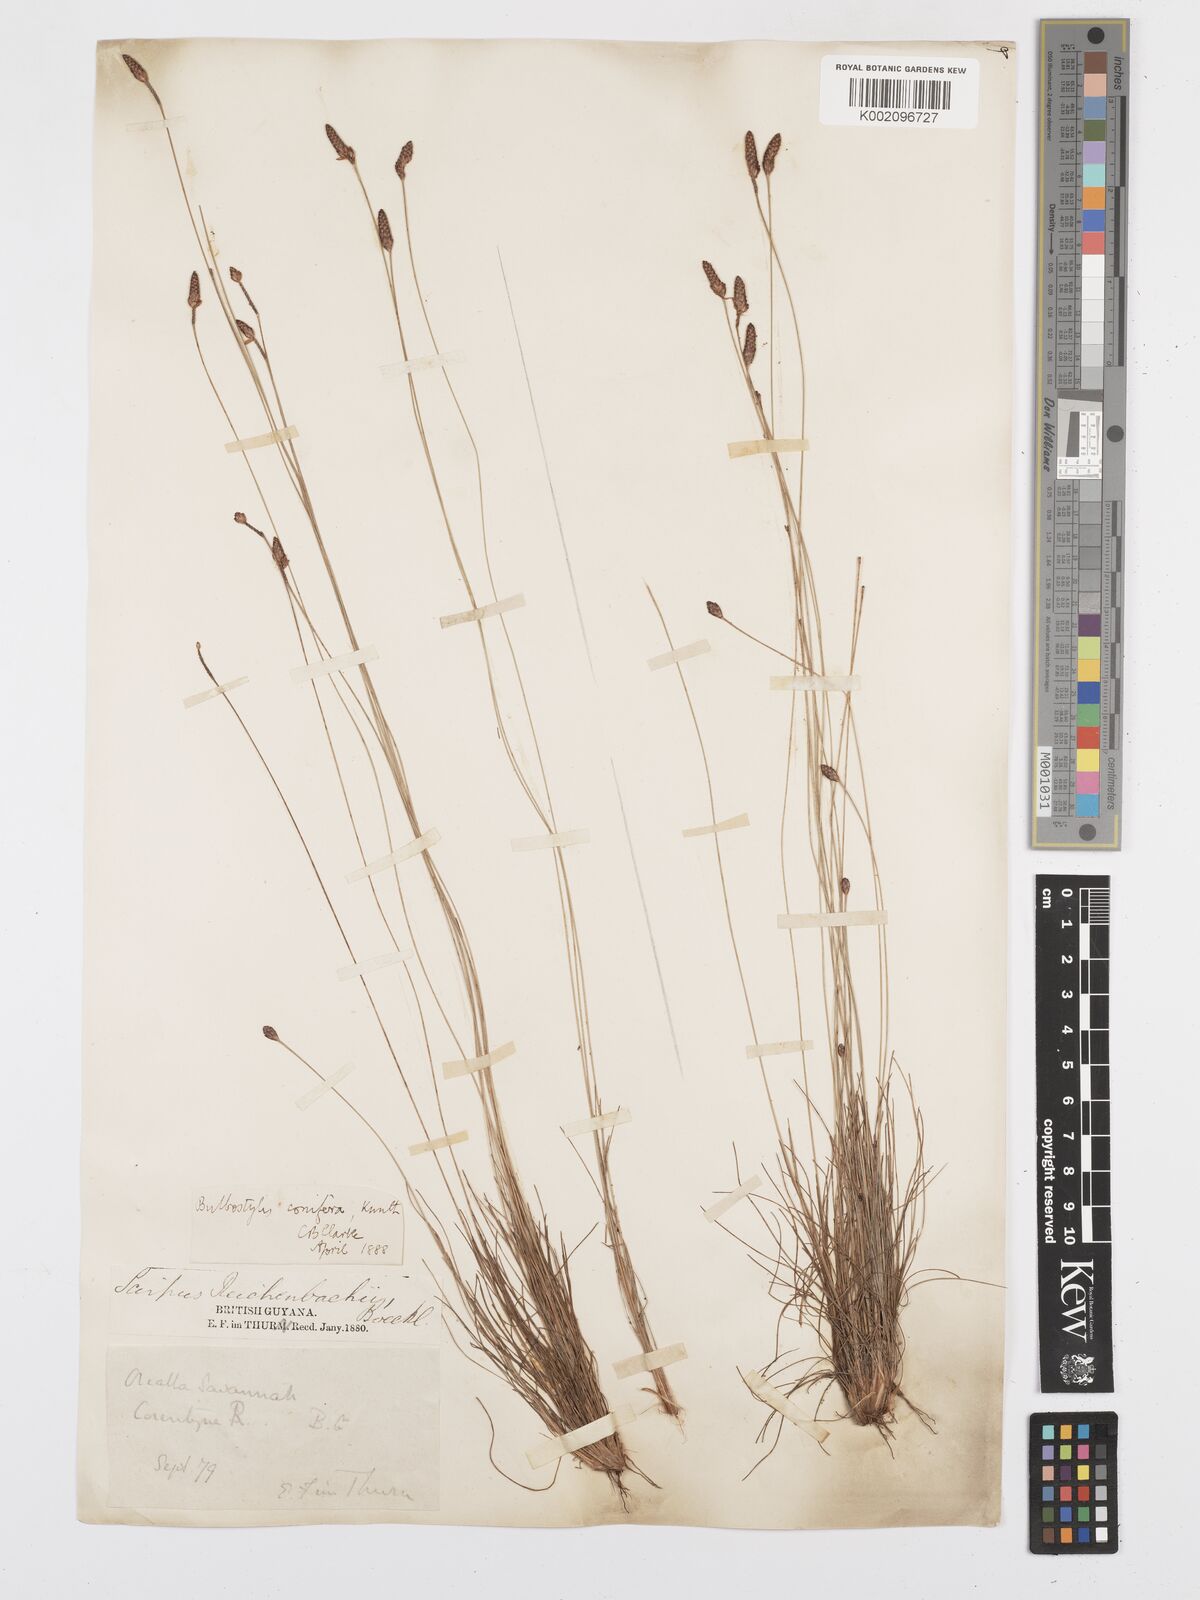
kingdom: Plantae
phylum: Tracheophyta
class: Liliopsida
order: Poales
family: Cyperaceae
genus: Bulbostylis
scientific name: Bulbostylis conifera
